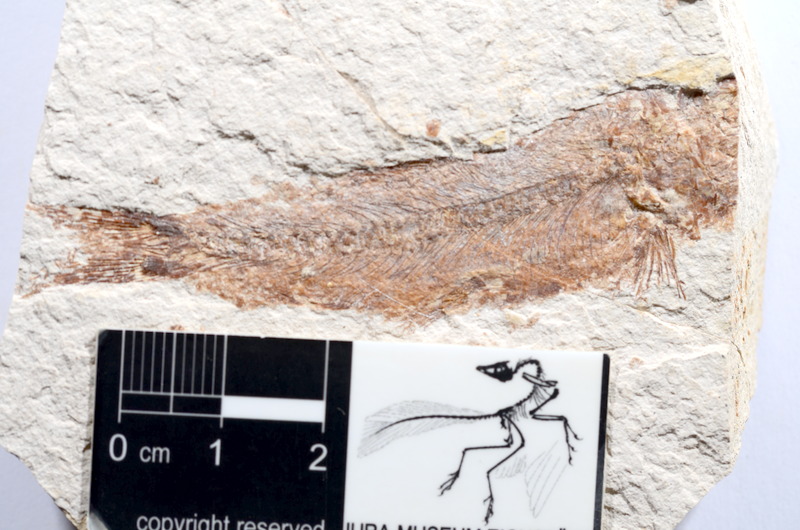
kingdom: Animalia
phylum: Chordata
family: Ascalaboidae
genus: Tharsis
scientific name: Tharsis dubius
